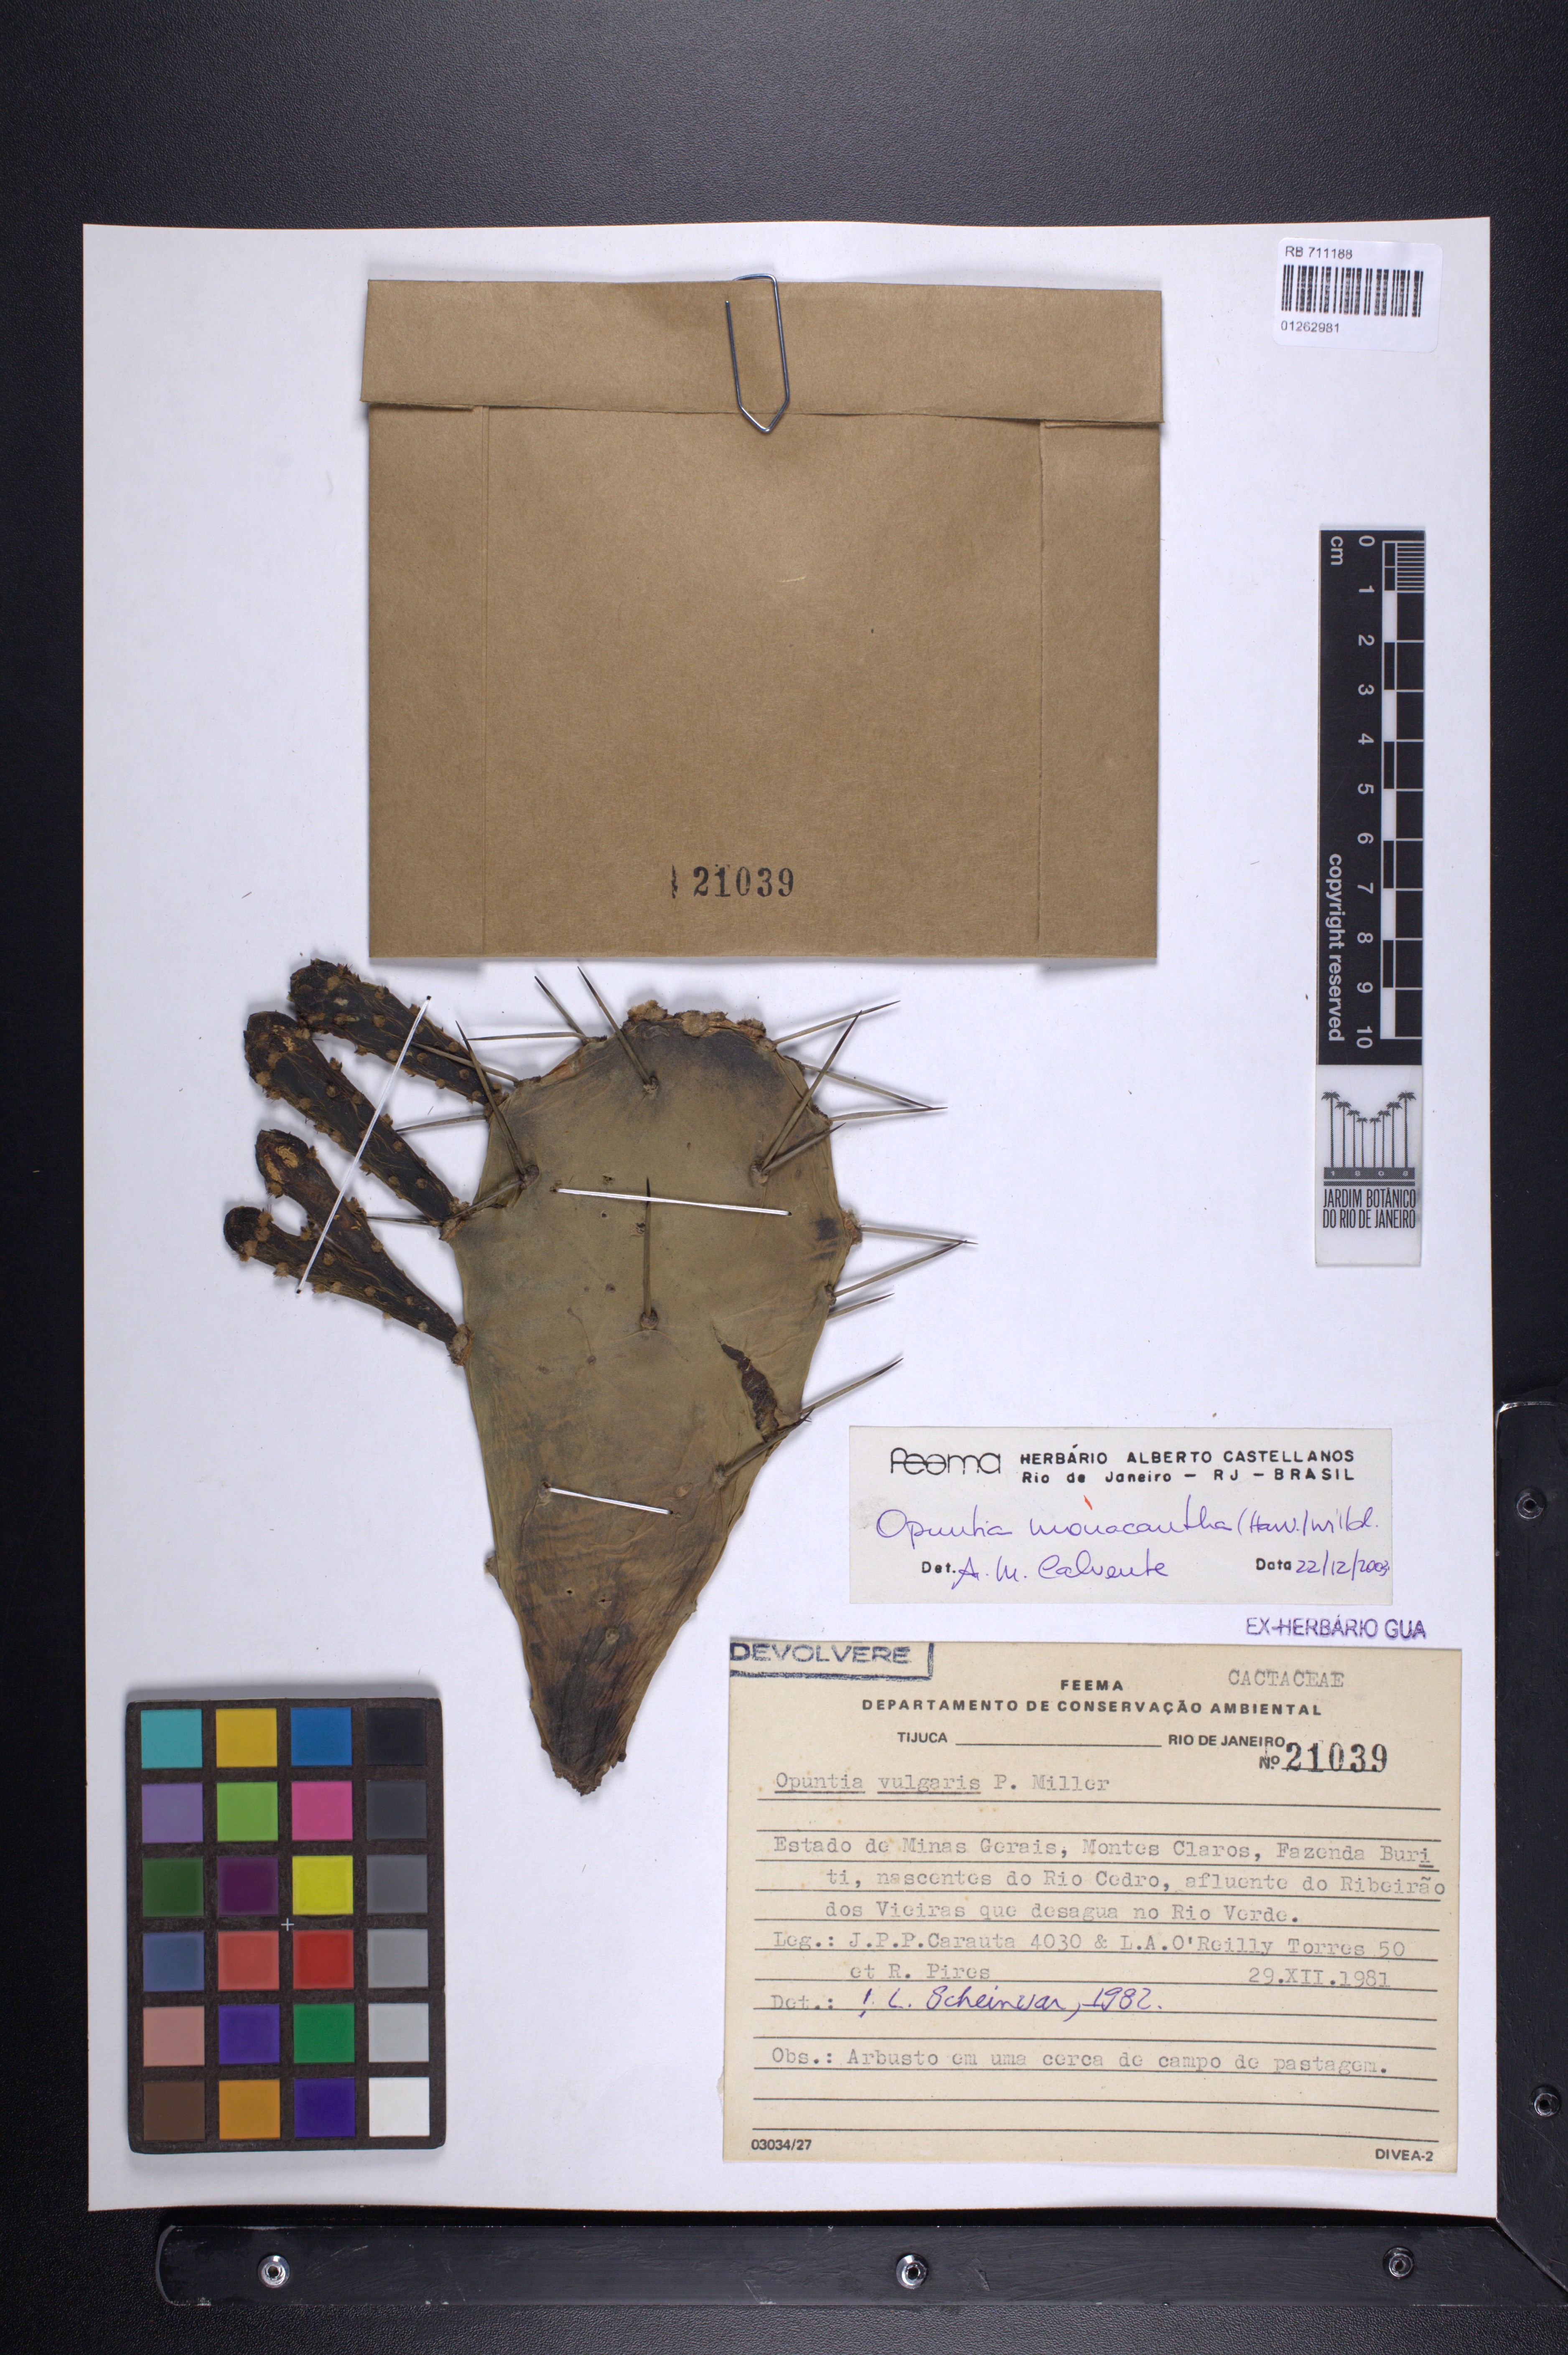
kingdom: Plantae
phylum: Tracheophyta
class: Magnoliopsida
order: Caryophyllales
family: Cactaceae
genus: Opuntia
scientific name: Opuntia monacantha
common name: Common pricklypear
